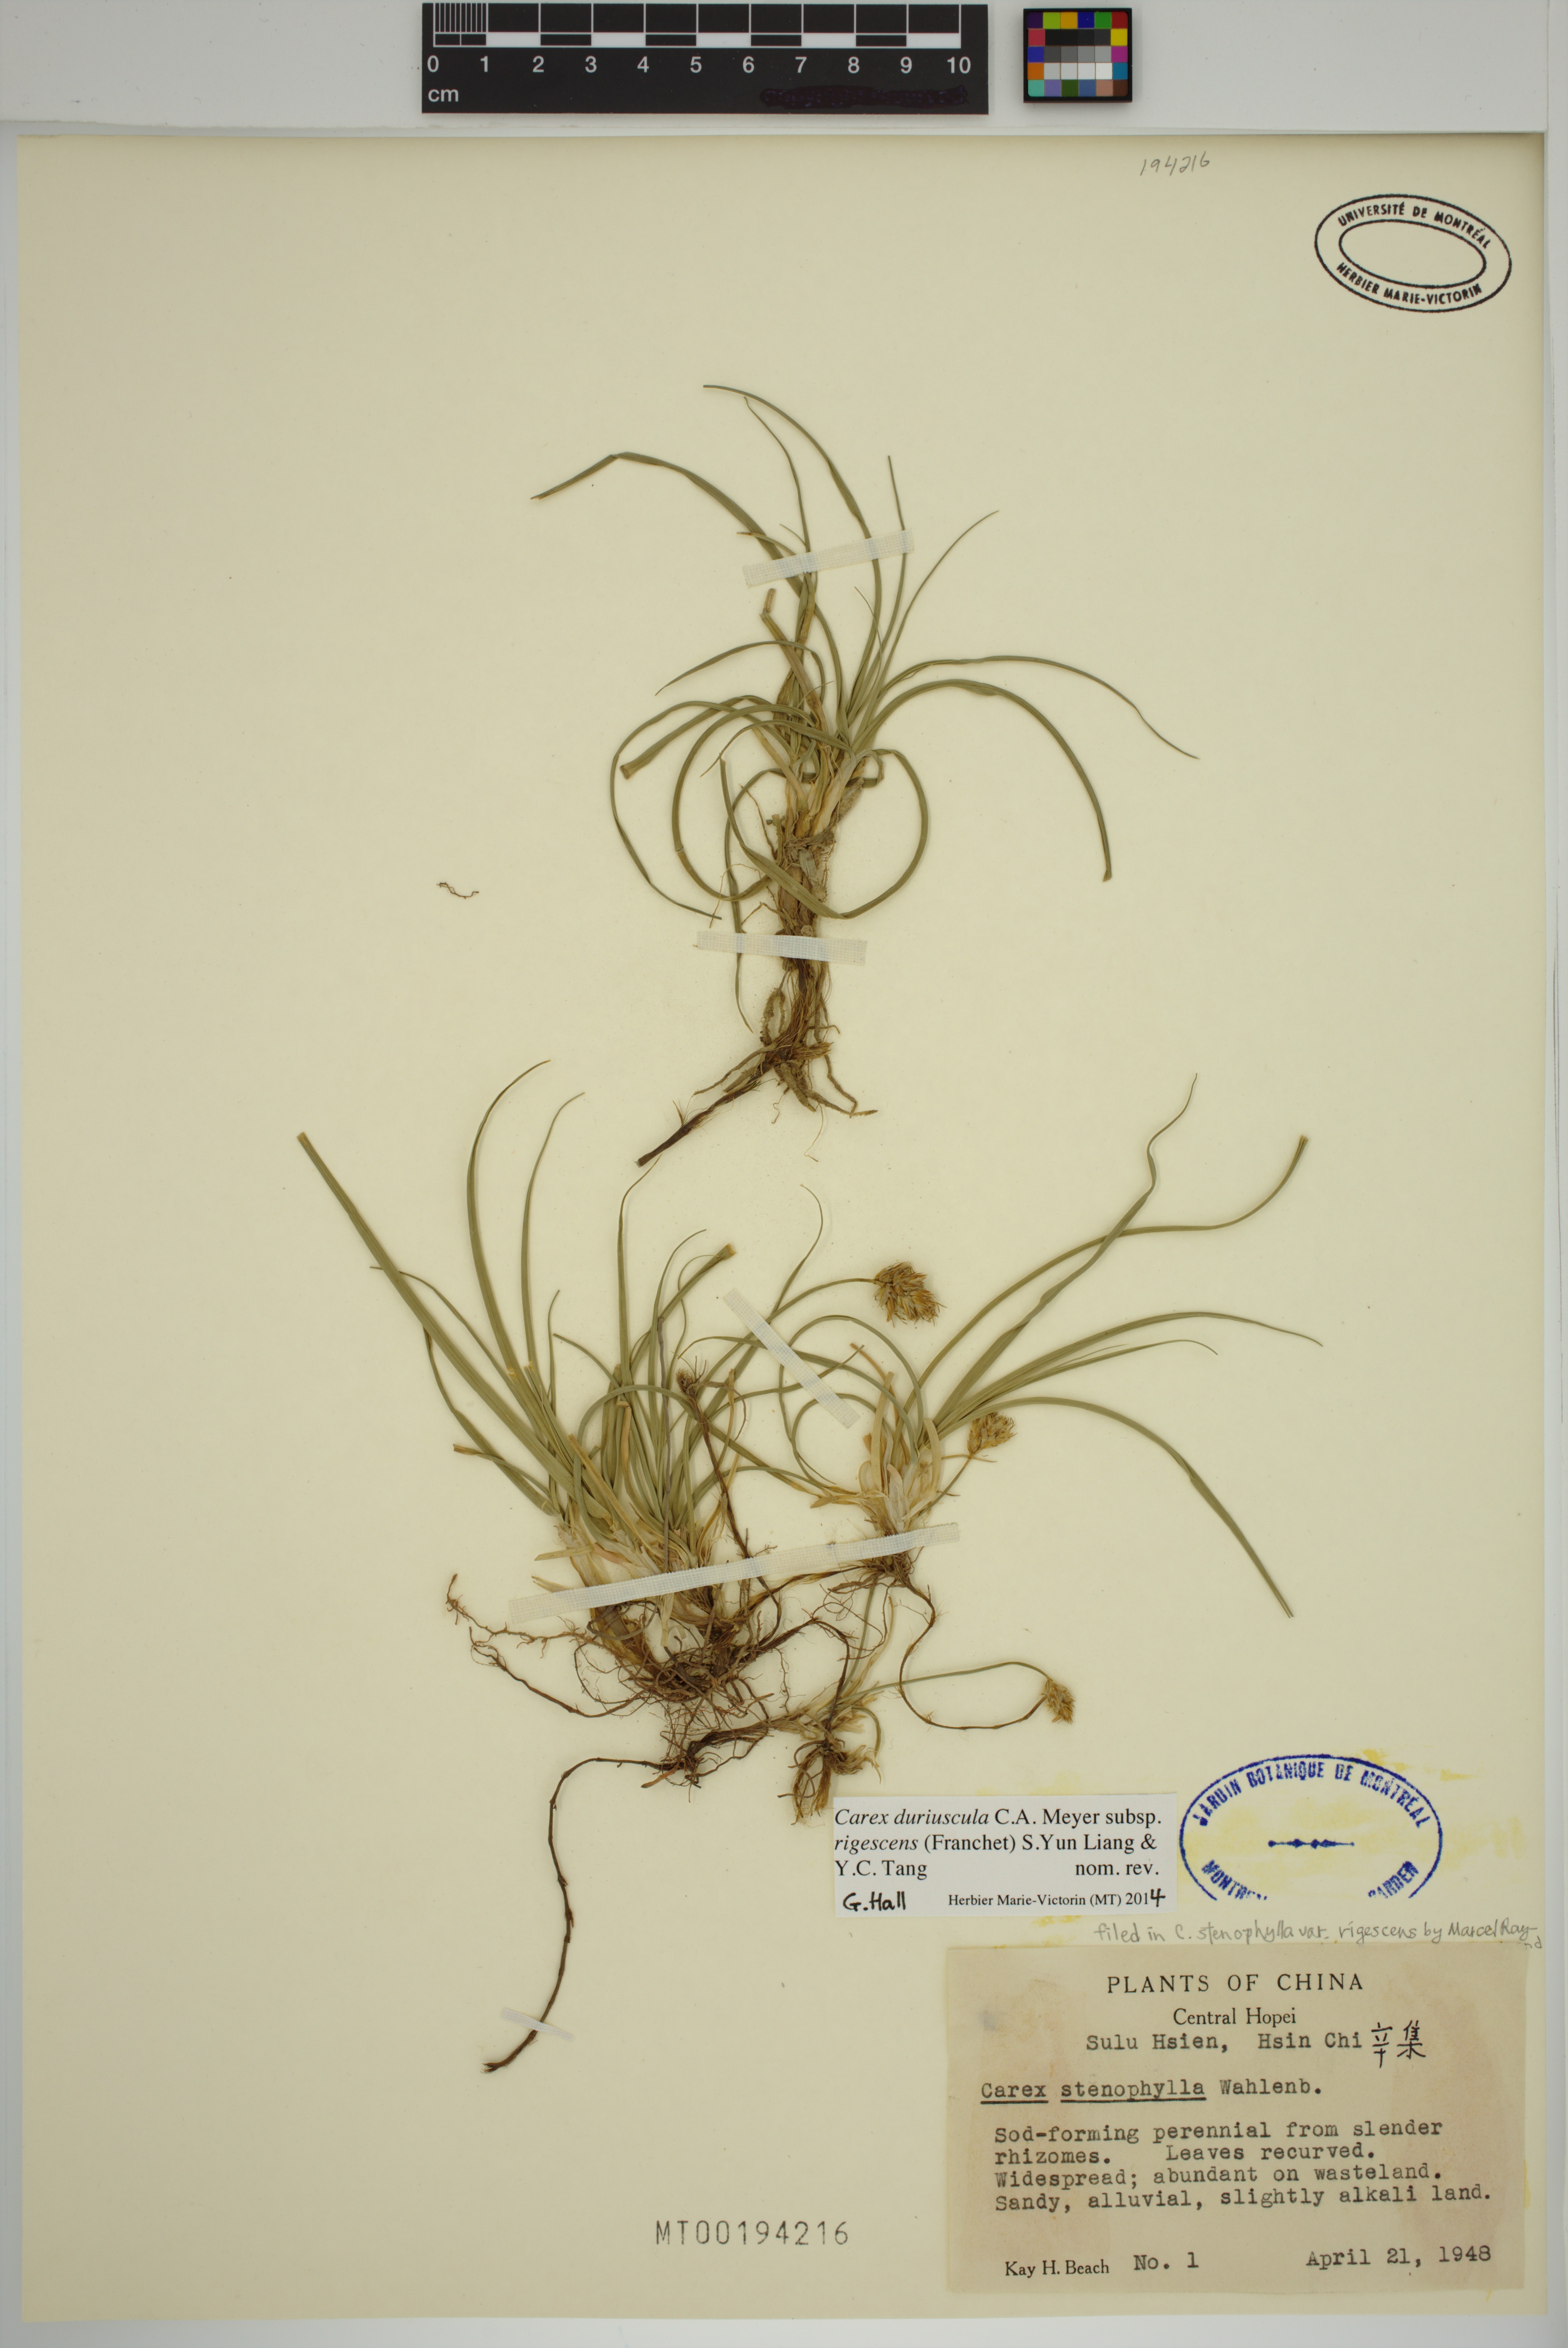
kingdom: Plantae
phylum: Tracheophyta
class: Liliopsida
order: Poales
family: Cyperaceae
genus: Carex
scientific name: Carex duriuscula
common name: Involute-leaved sedge
